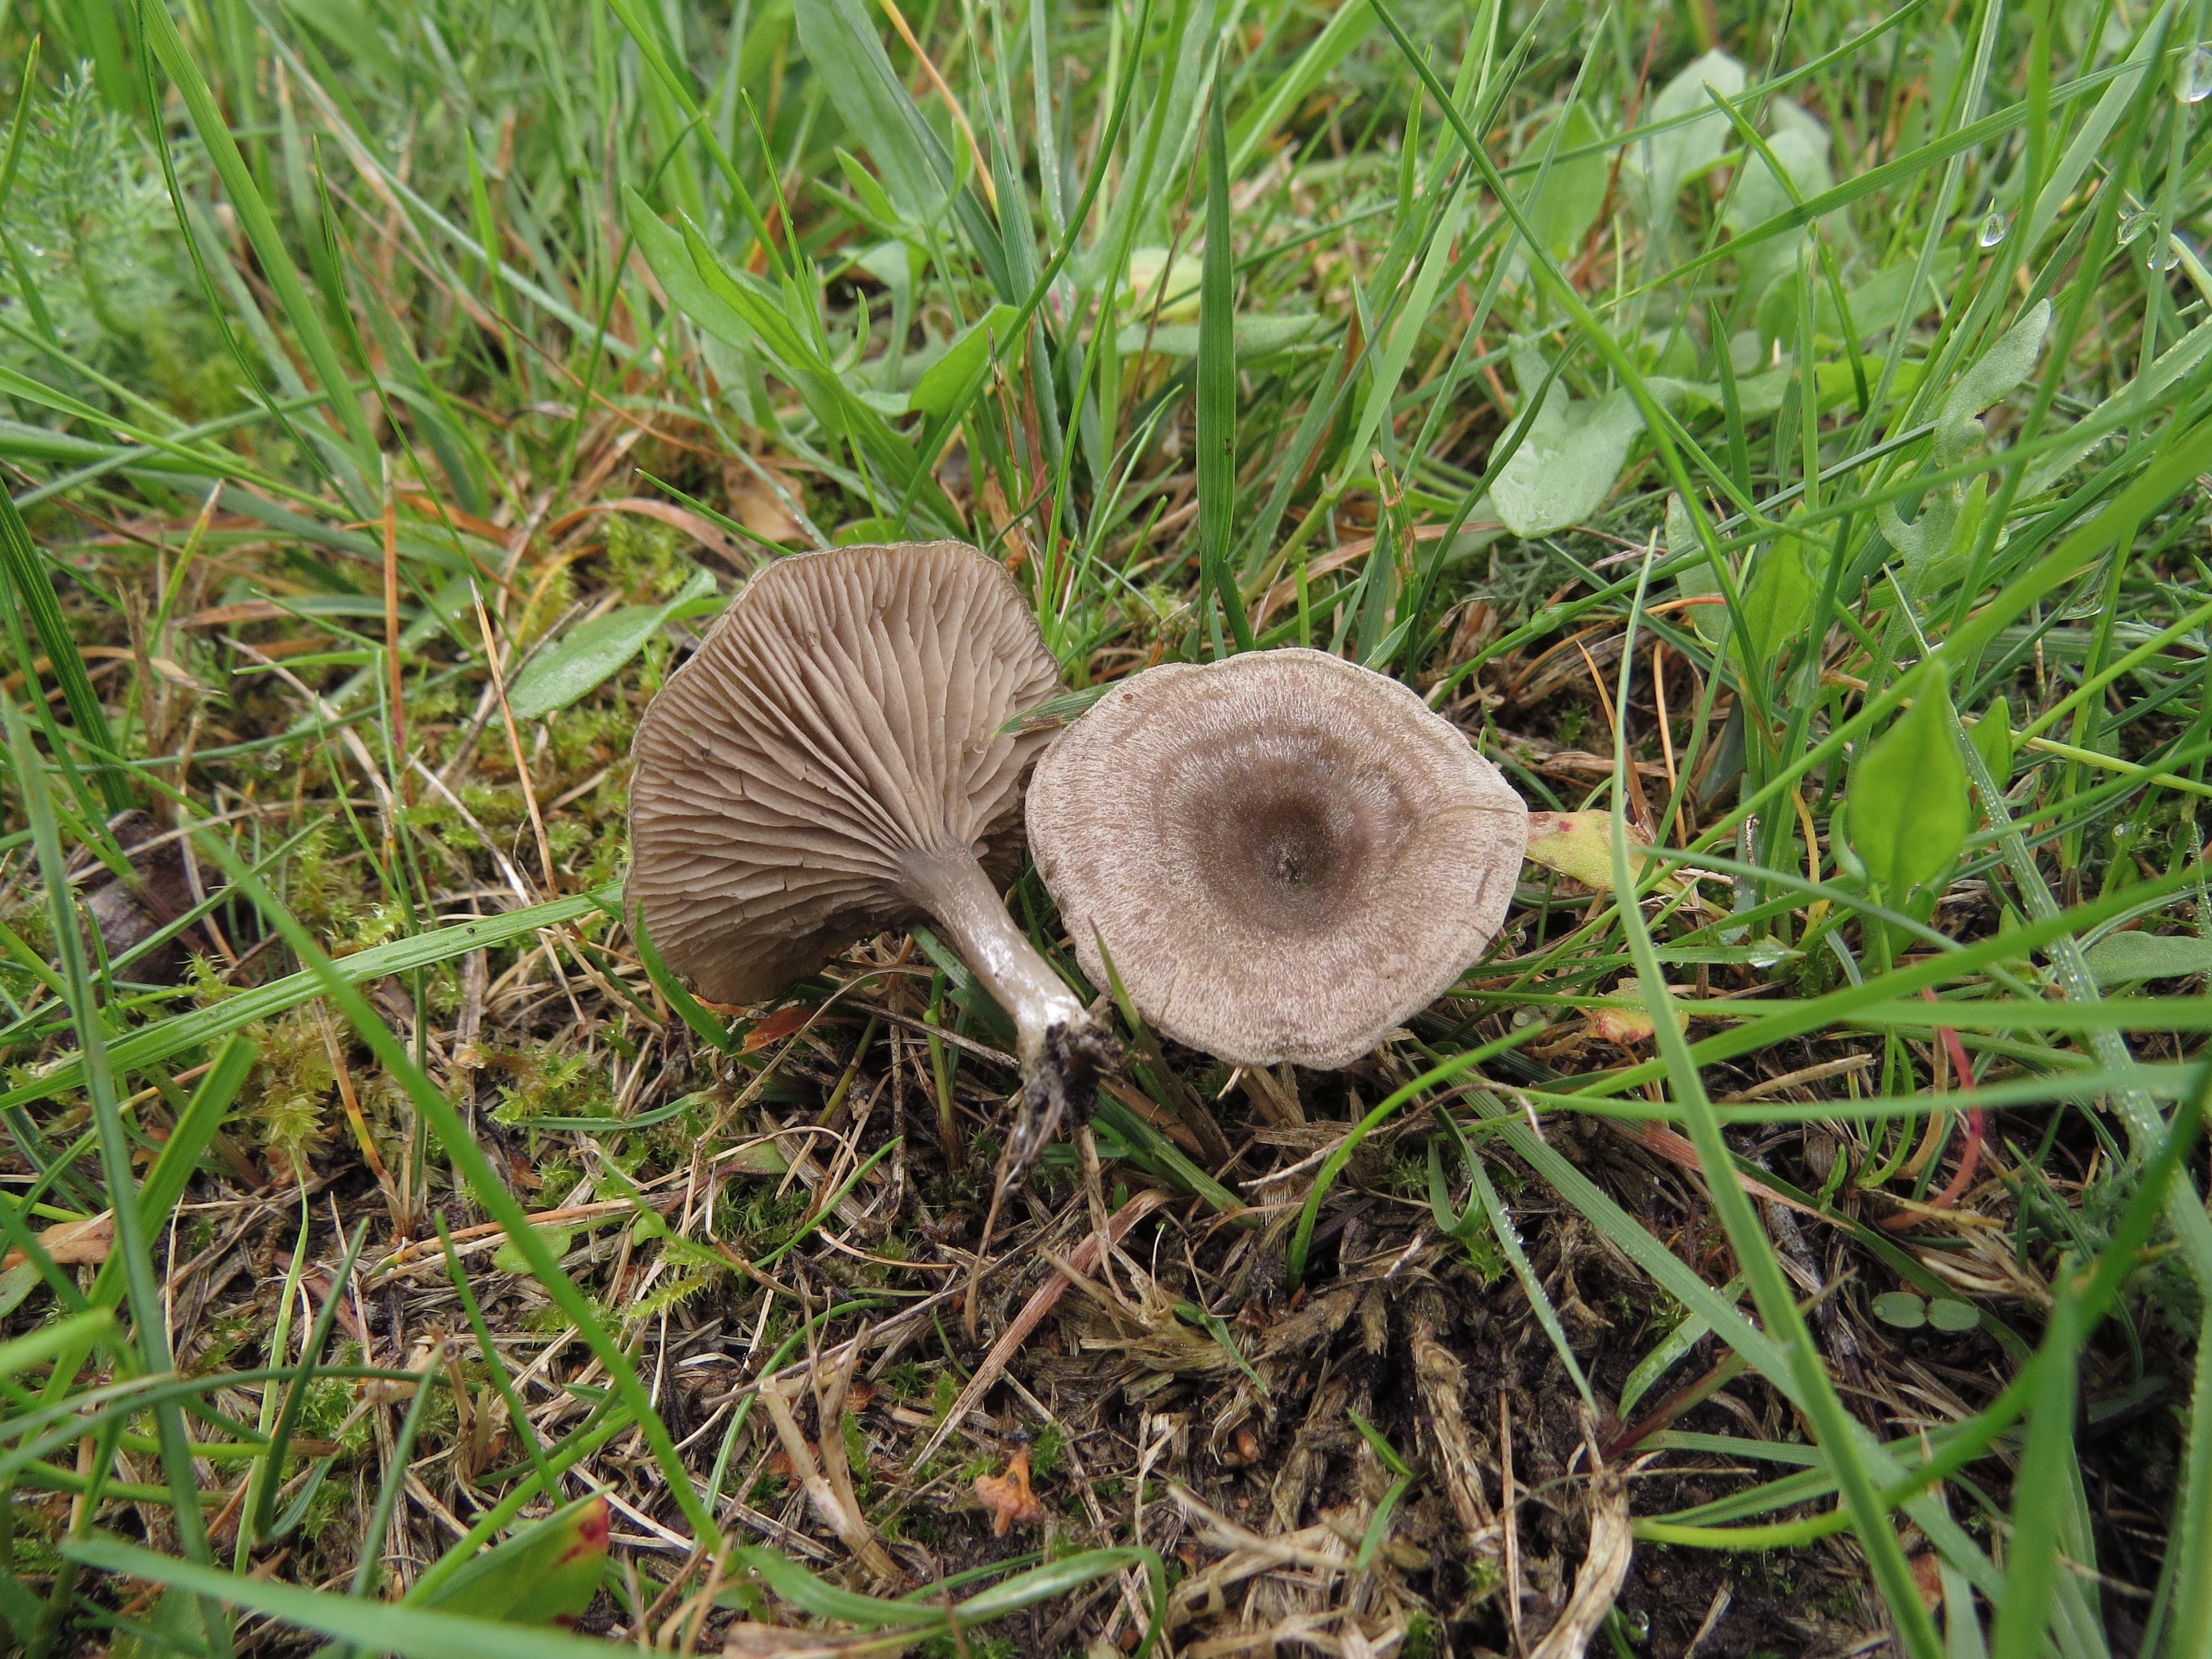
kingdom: Fungi
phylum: Basidiomycota
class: Agaricomycetes
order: Agaricales
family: Entolomataceae
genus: Entoloma
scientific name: Entoloma undatum
